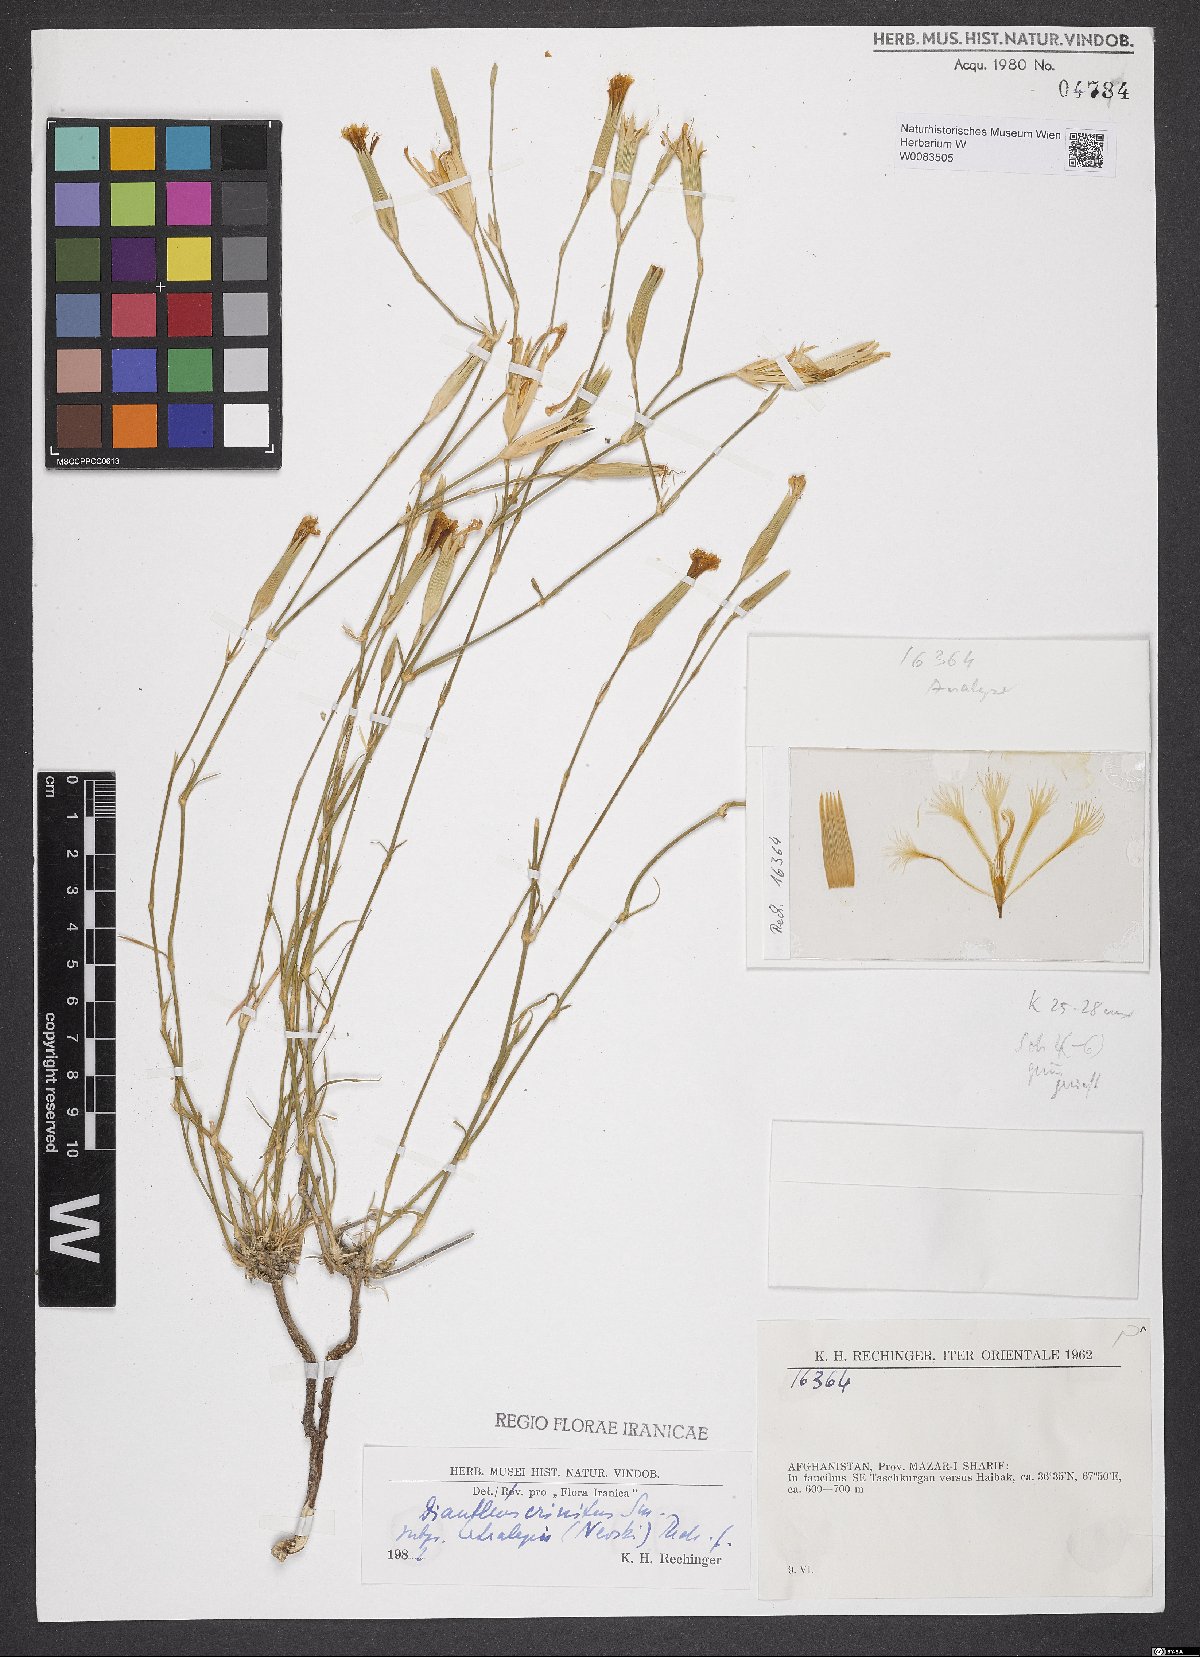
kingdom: Plantae
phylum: Tracheophyta
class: Magnoliopsida
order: Caryophyllales
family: Caryophyllaceae
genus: Dianthus
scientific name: Dianthus crinitus
